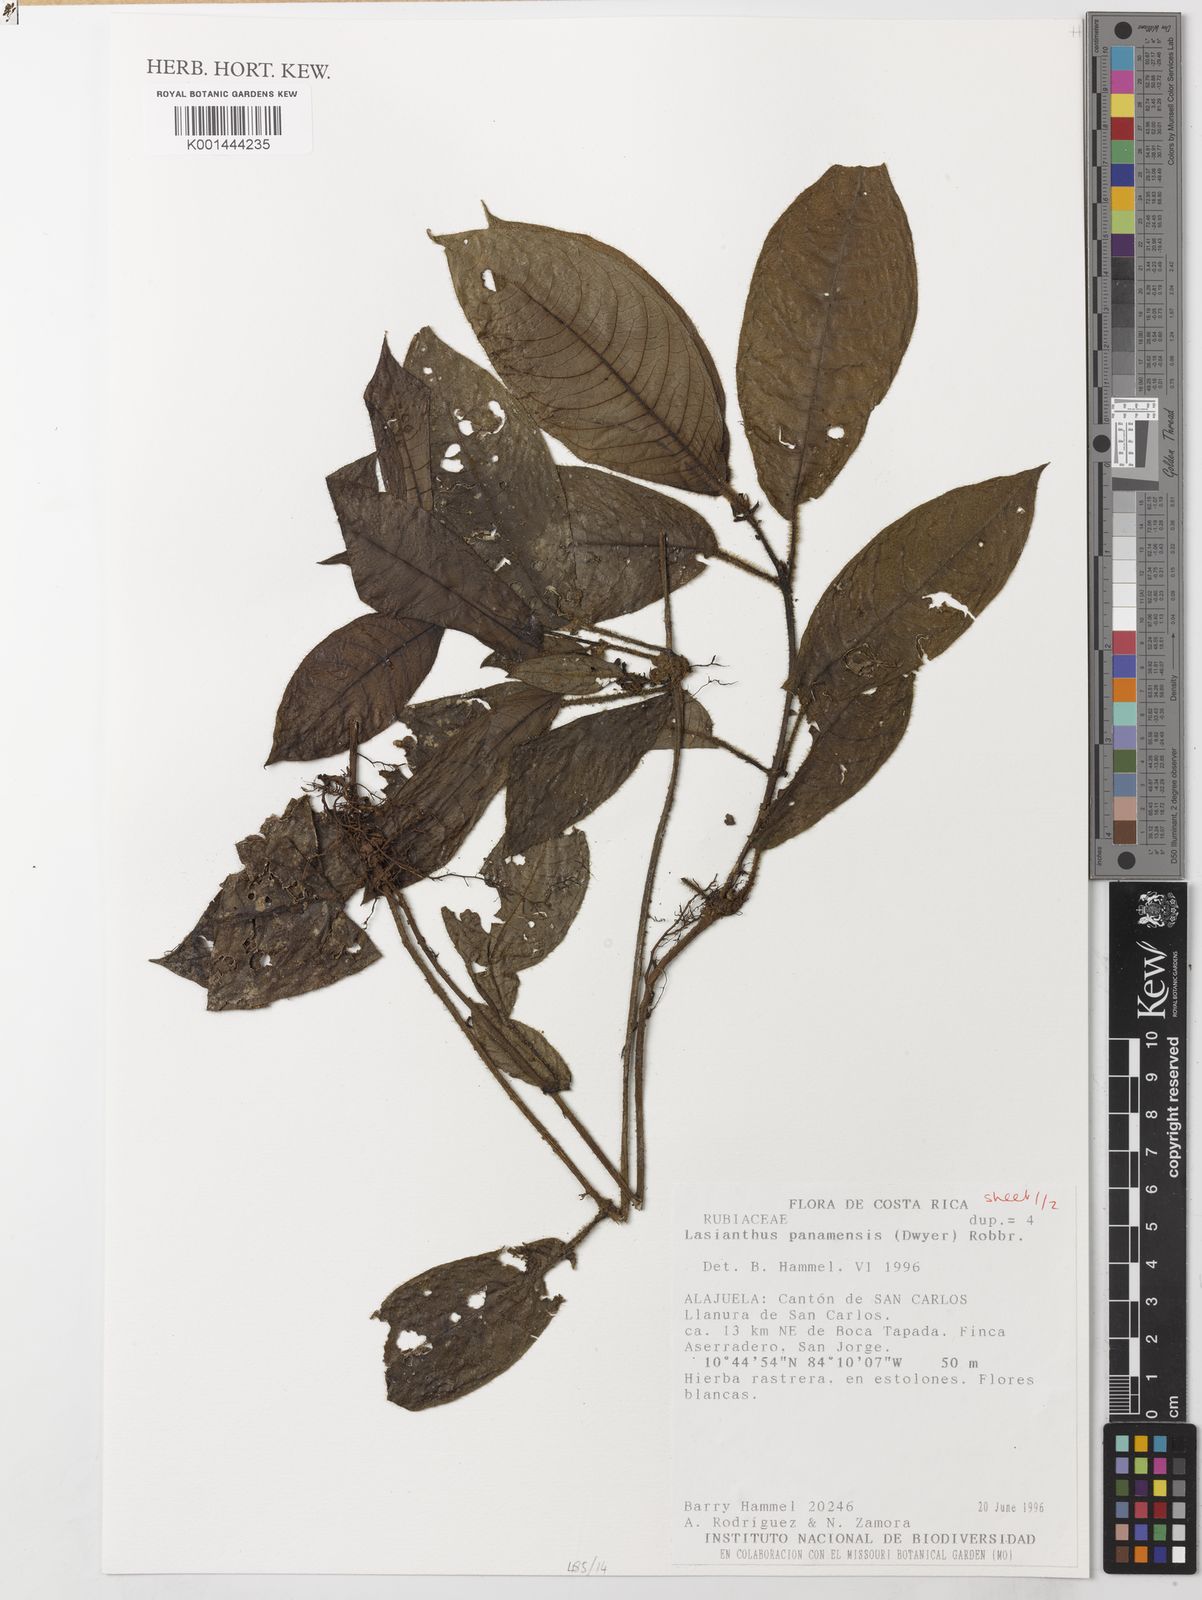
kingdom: Plantae
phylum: Tracheophyta
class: Magnoliopsida
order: Gentianales
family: Rubiaceae
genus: Lasianthus
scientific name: Lasianthus panamensis
